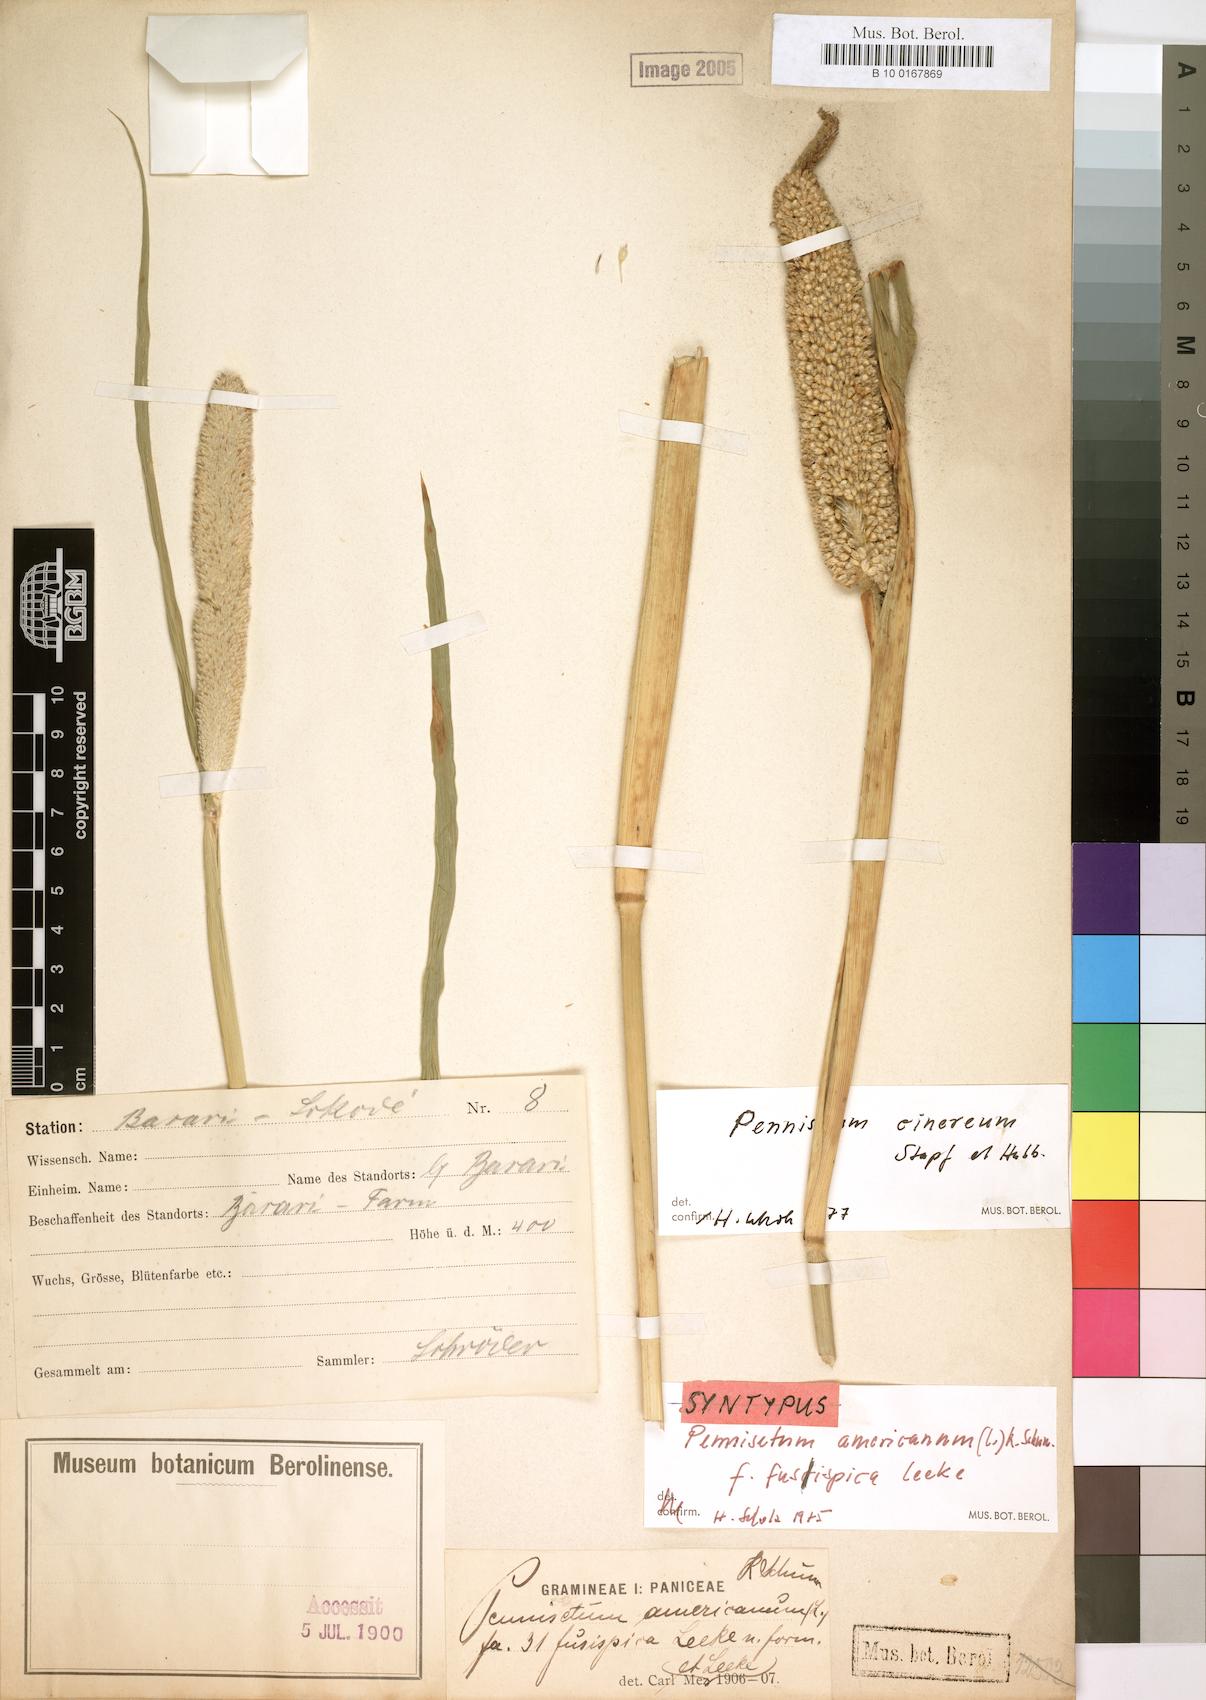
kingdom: Plantae
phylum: Tracheophyta
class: Liliopsida
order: Poales
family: Poaceae
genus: Cenchrus
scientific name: Cenchrus americanus
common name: Pearl millet
